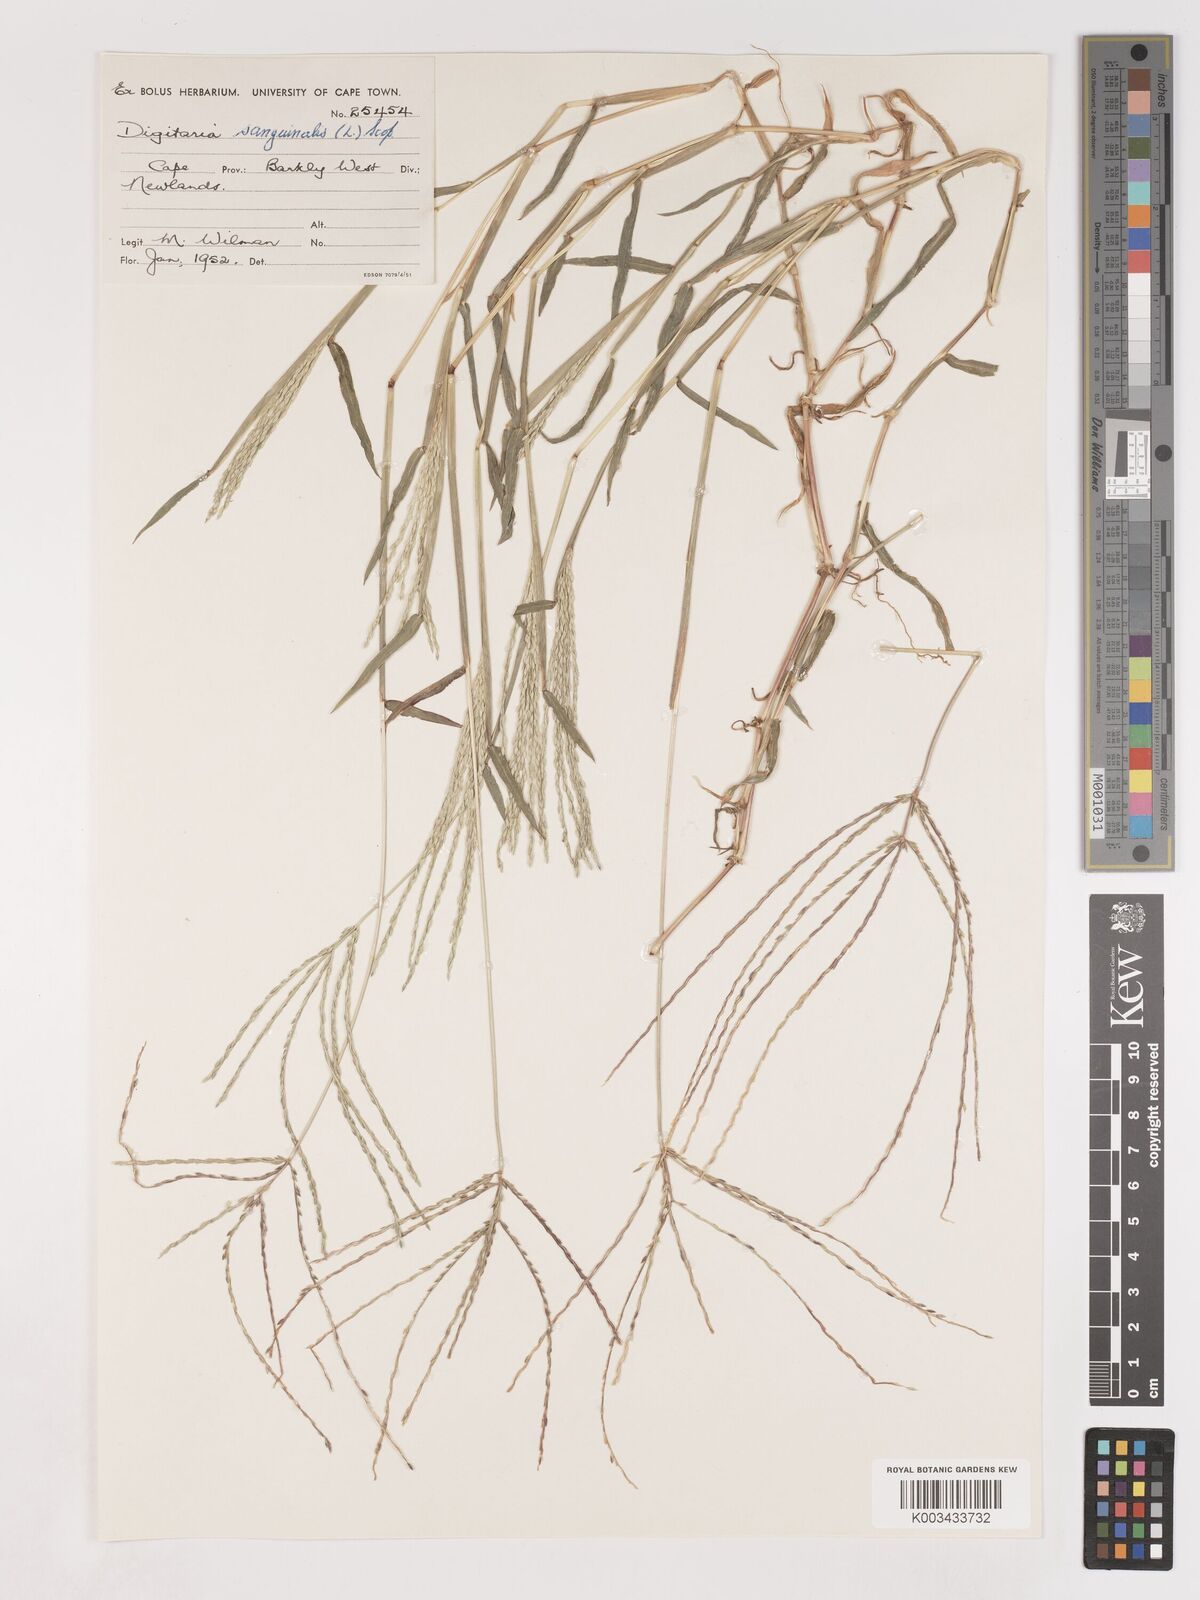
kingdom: Plantae
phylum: Tracheophyta
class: Liliopsida
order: Poales
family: Poaceae
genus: Digitaria
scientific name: Digitaria sanguinalis
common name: Hairy crabgrass
